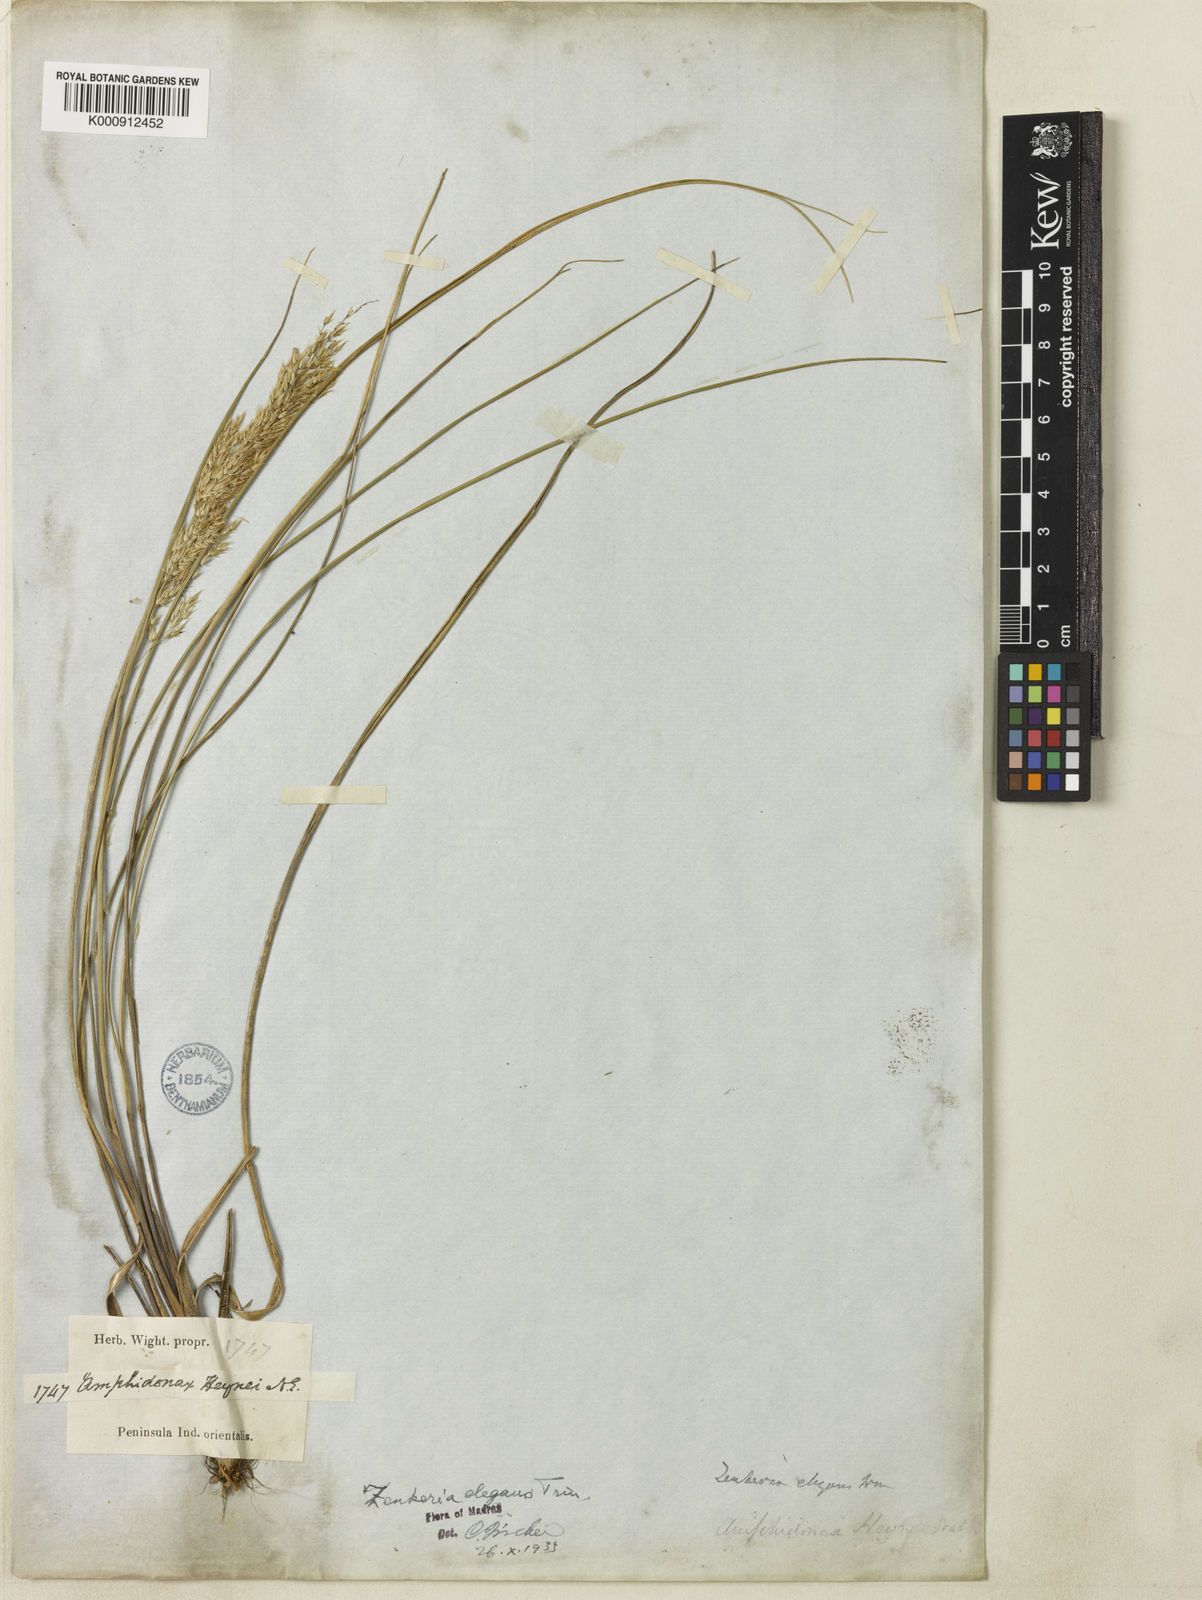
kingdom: Plantae
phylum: Tracheophyta
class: Liliopsida
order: Poales
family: Poaceae
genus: Zenkeria
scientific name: Zenkeria elegans
